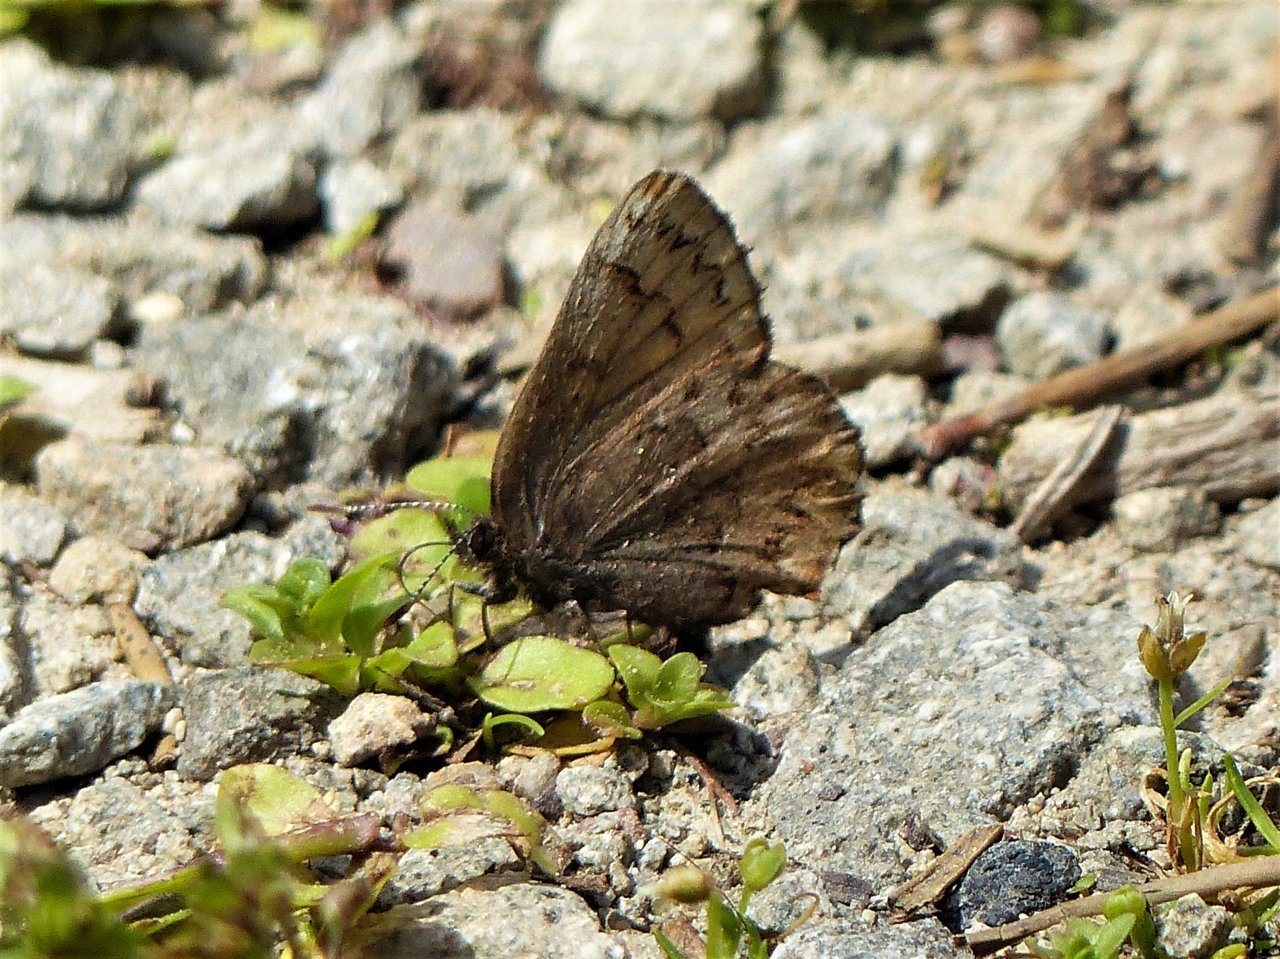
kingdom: Animalia
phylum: Arthropoda
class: Insecta
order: Lepidoptera
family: Lycaenidae
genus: Incisalia
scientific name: Incisalia eryphon
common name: Western Pine Elfin
